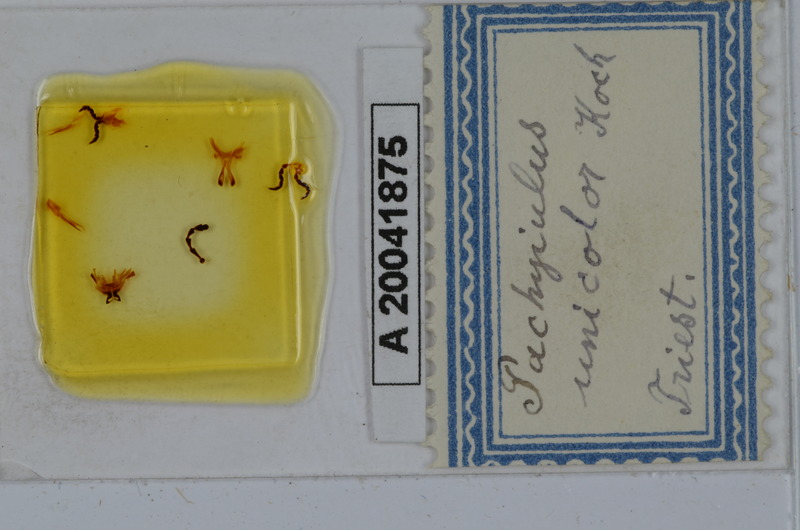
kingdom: Animalia
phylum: Arthropoda
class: Diplopoda
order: Julida
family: Julidae
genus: Pachyiulus
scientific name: Pachyiulus unicolor
